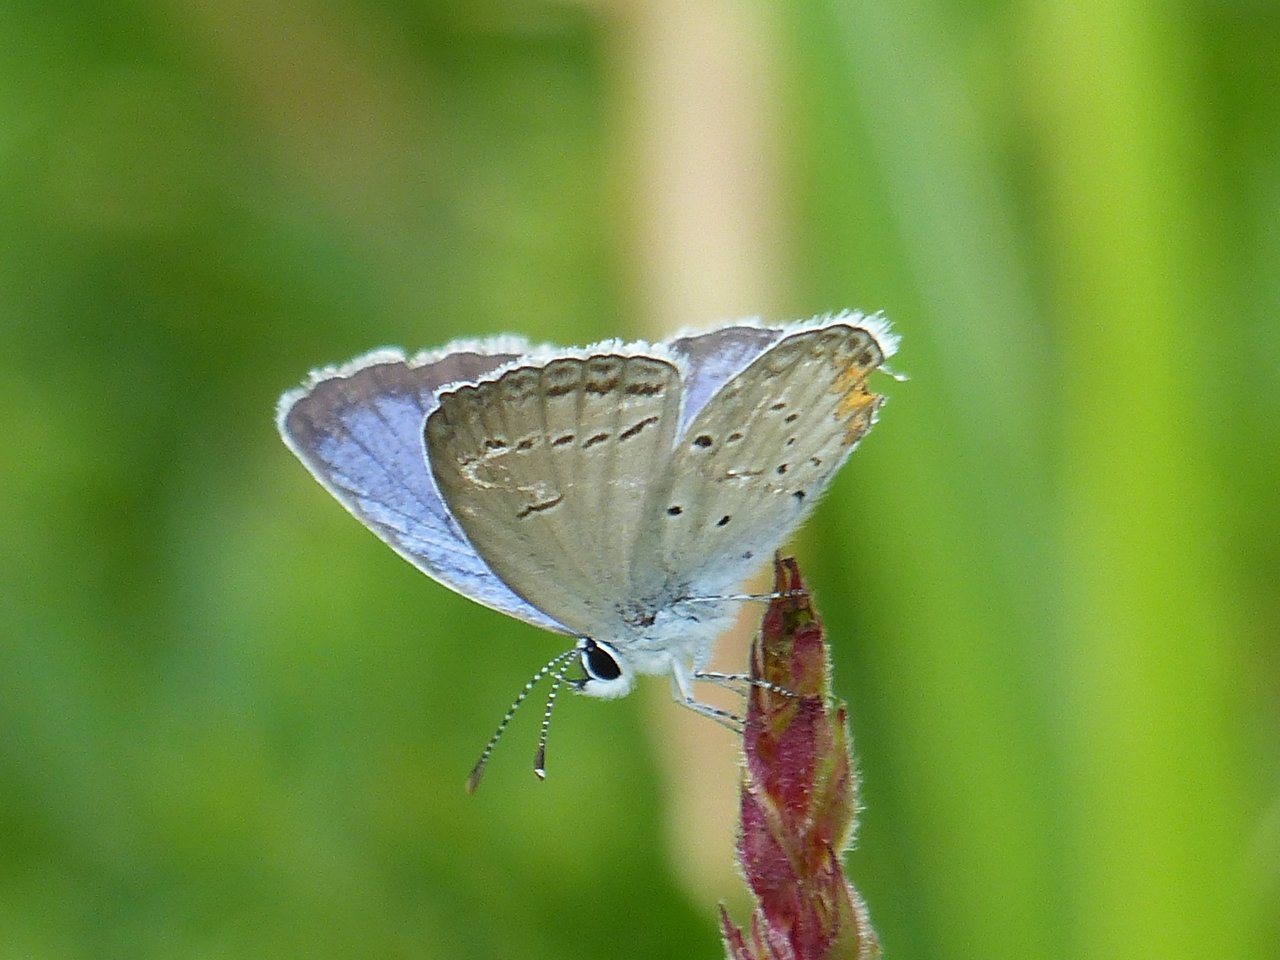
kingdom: Animalia
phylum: Arthropoda
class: Insecta
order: Lepidoptera
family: Lycaenidae
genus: Elkalyce
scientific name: Elkalyce comyntas
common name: Eastern Tailed-Blue
